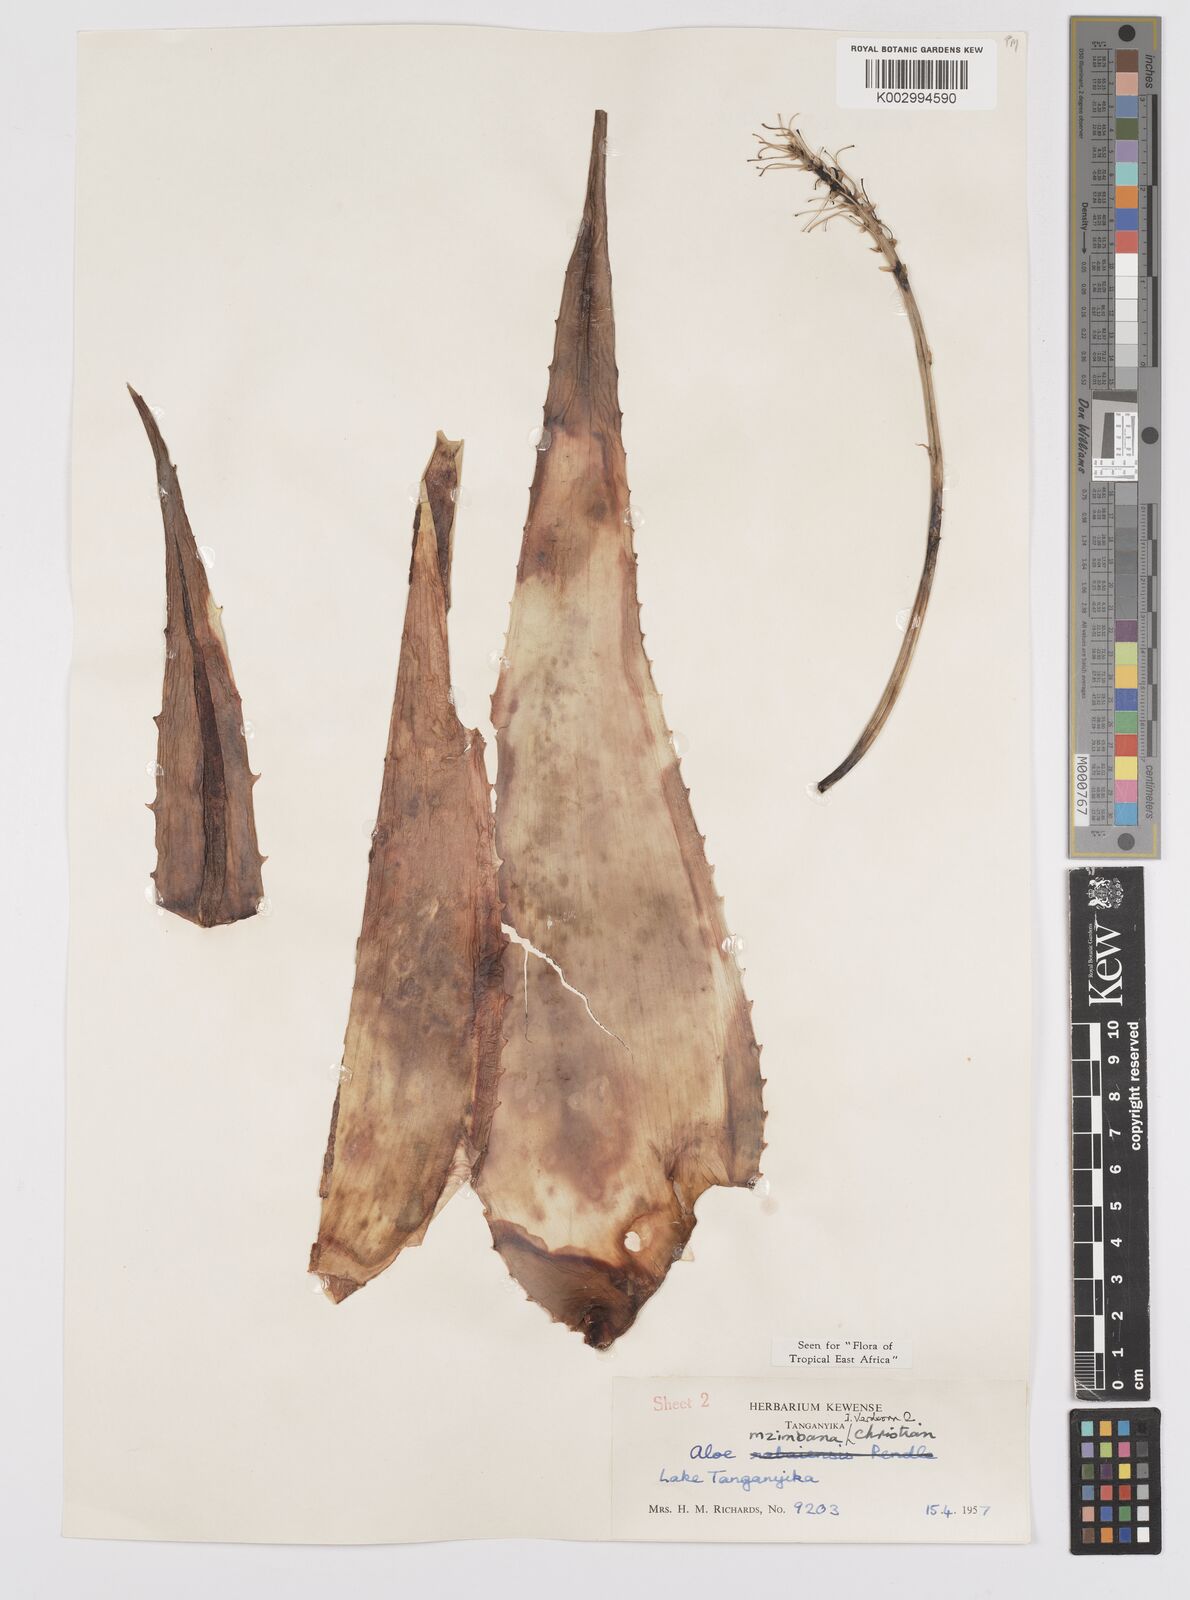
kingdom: Plantae
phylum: Tracheophyta
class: Liliopsida
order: Asparagales
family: Asphodelaceae
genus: Aloe
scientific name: Aloe mzimbana
